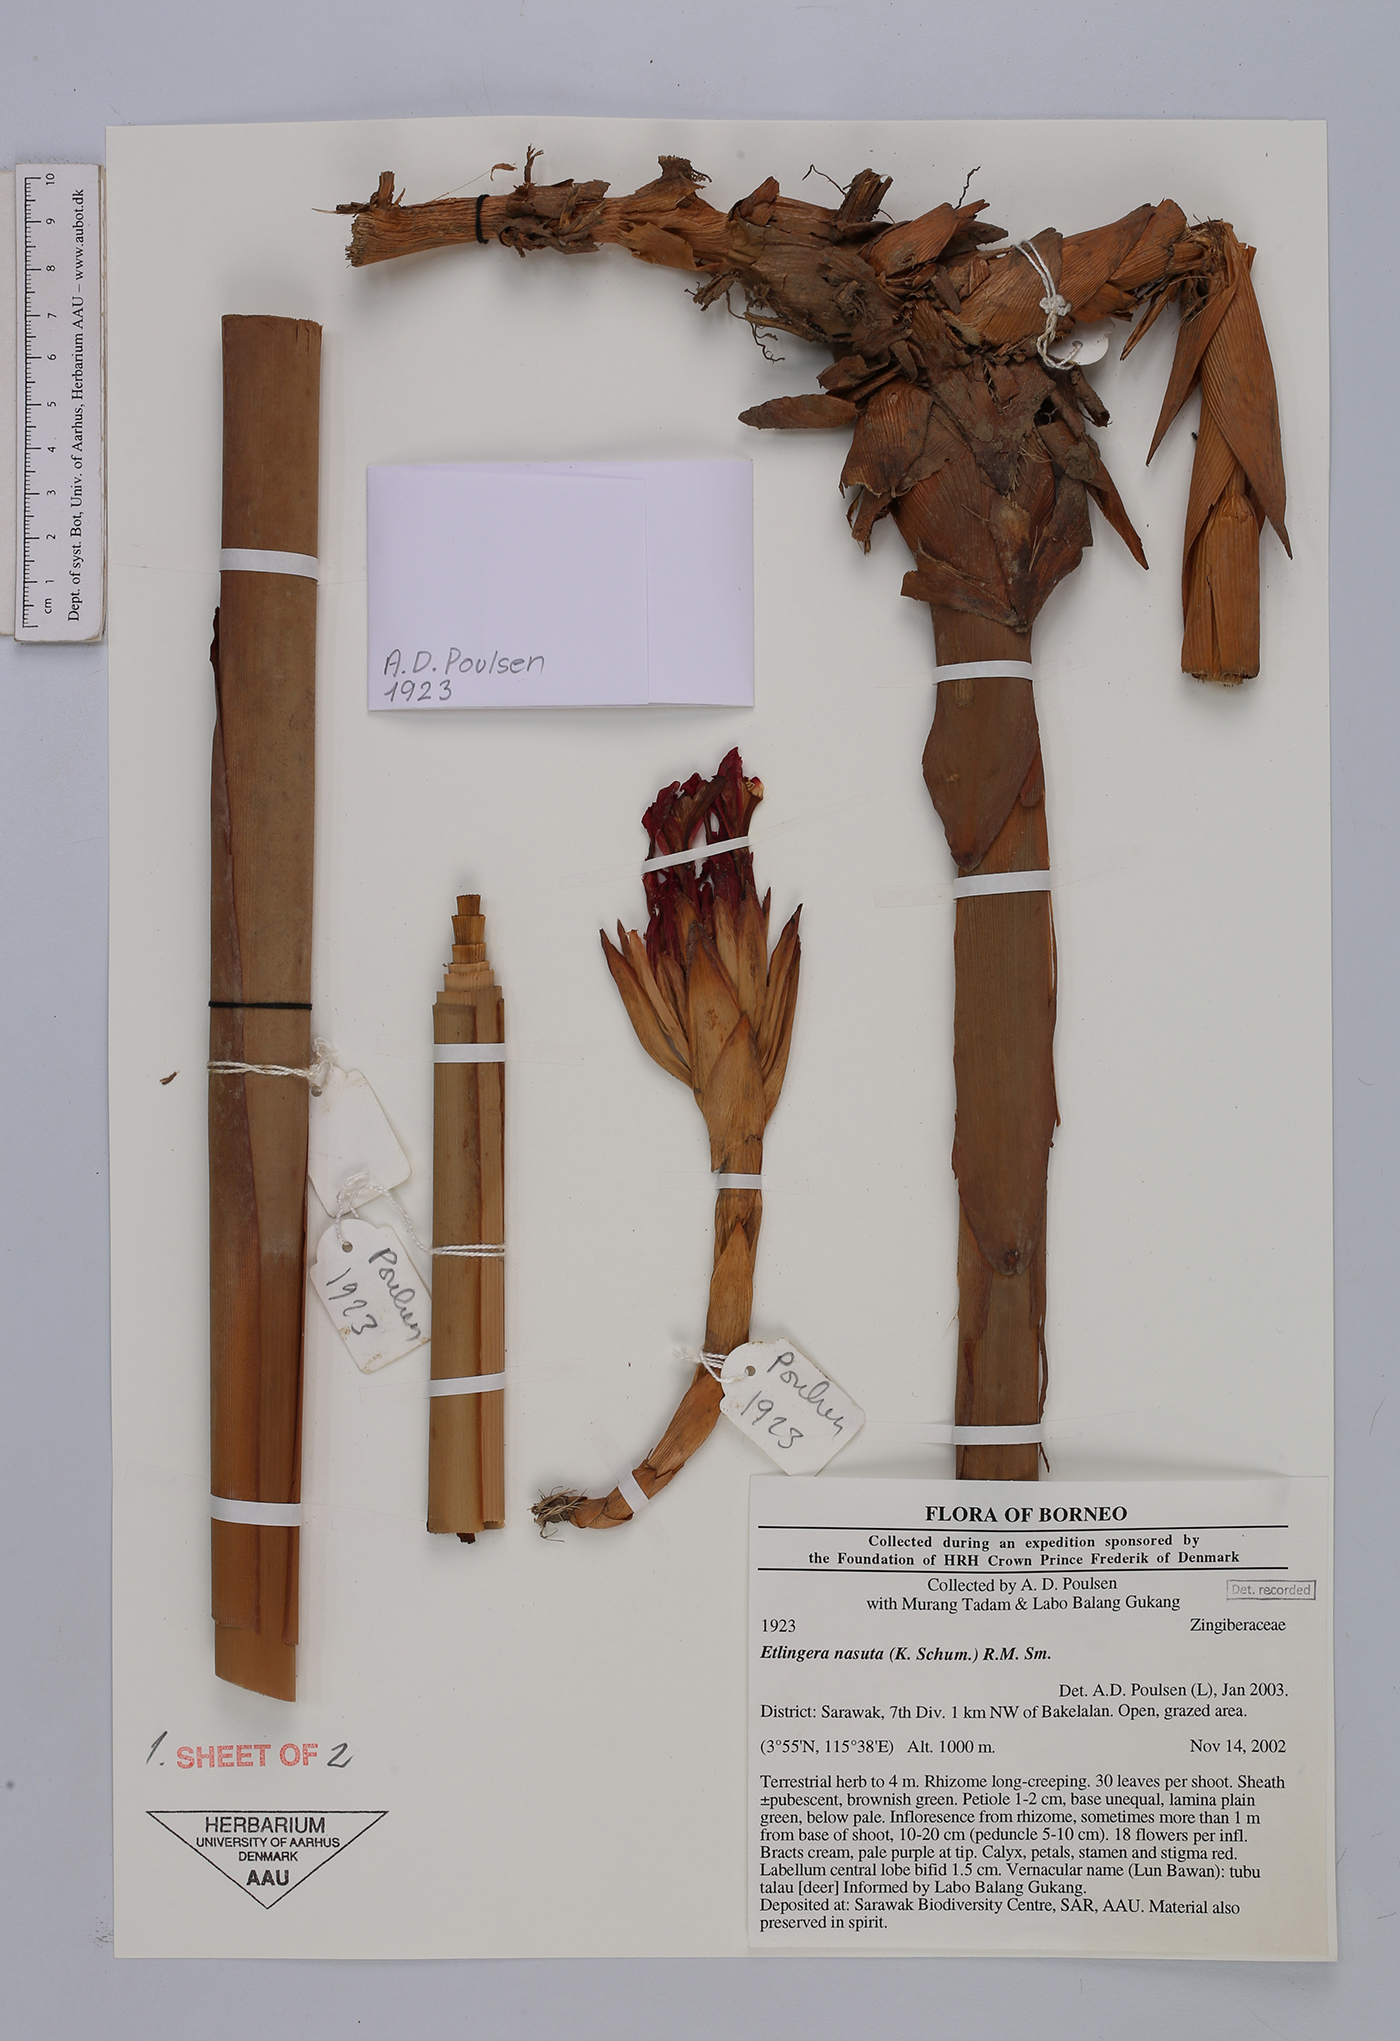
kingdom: Plantae
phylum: Tracheophyta
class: Liliopsida
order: Zingiberales
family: Zingiberaceae
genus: Etlingera
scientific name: Etlingera nasuta
